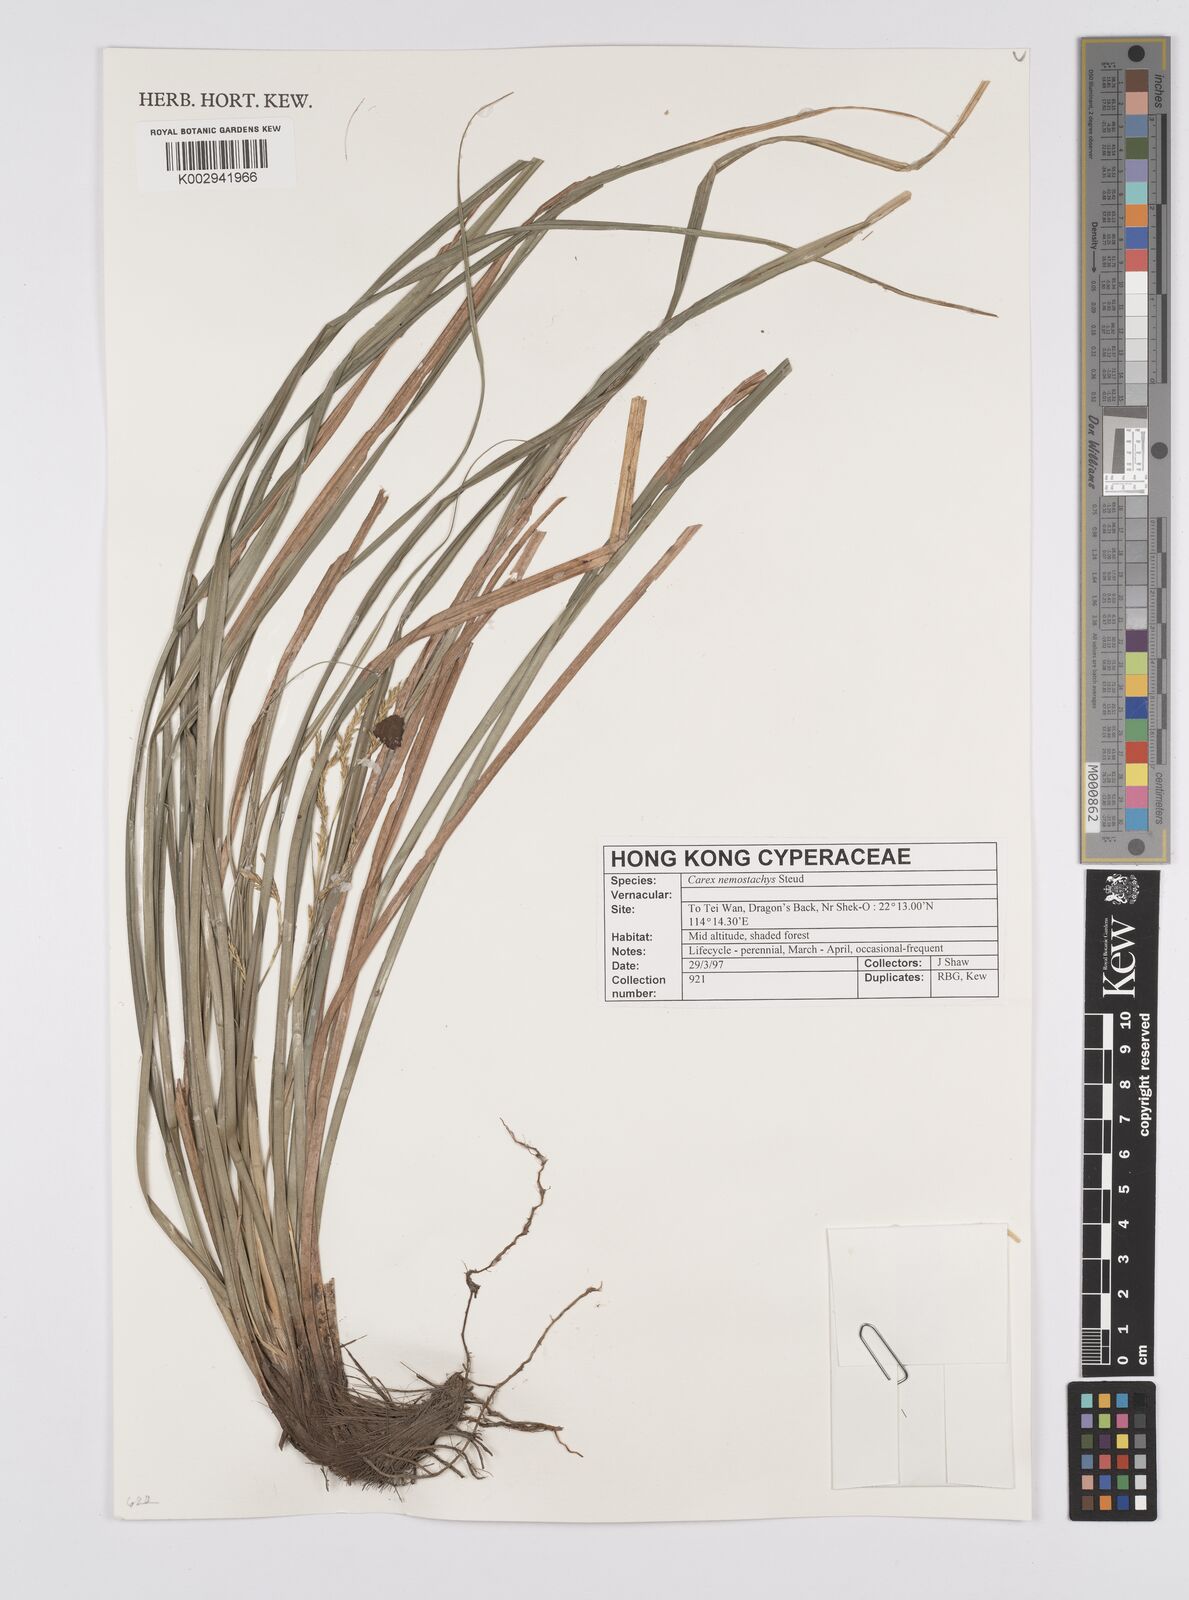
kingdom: Plantae
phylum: Tracheophyta
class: Liliopsida
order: Poales
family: Cyperaceae
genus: Carex
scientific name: Carex nemostachys
